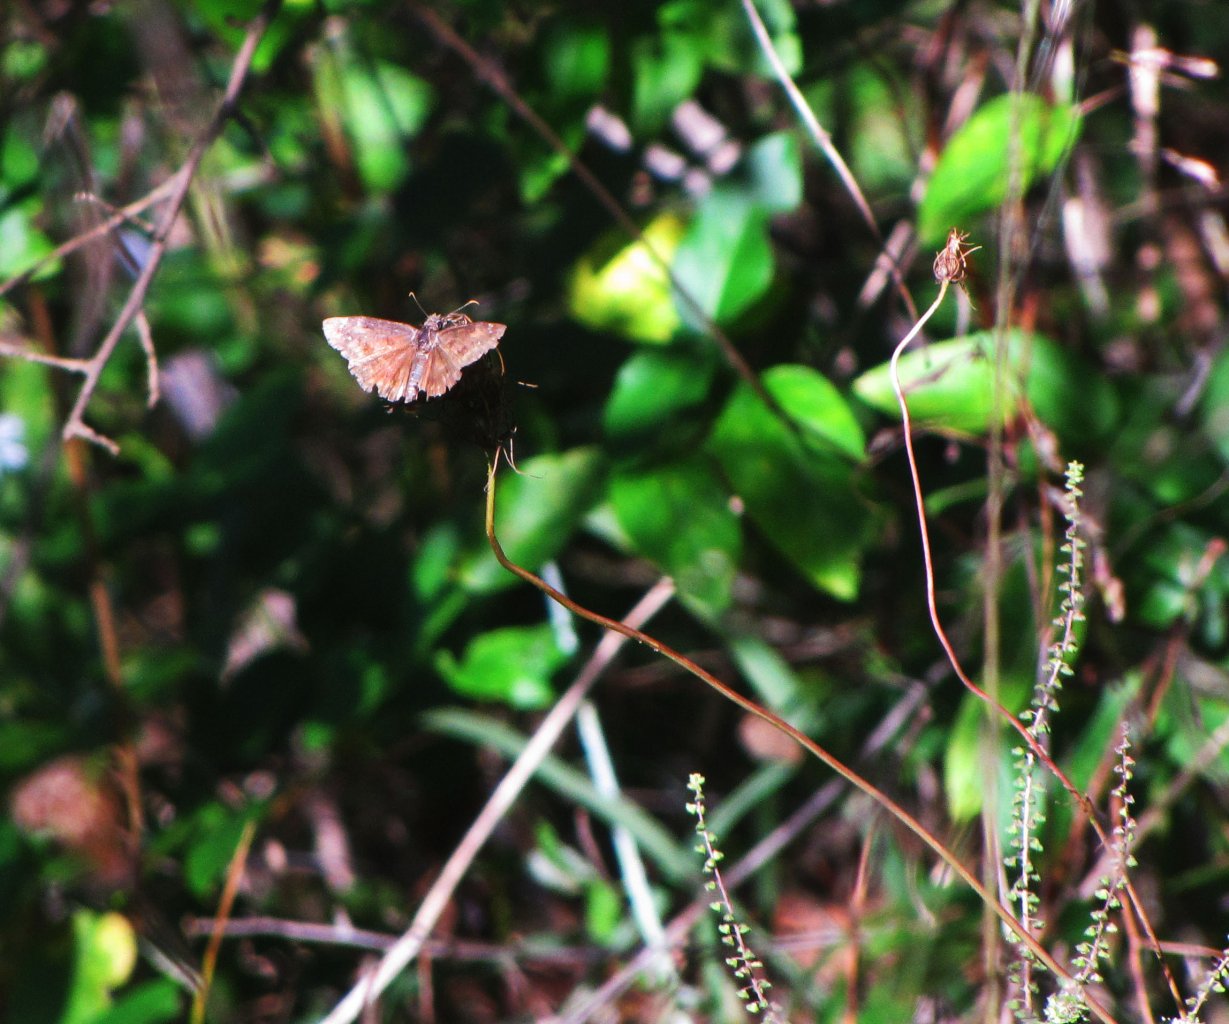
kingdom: Animalia
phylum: Arthropoda
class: Insecta
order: Lepidoptera
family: Hesperiidae
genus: Gesta
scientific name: Gesta
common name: Wild Indigo Duskywing
